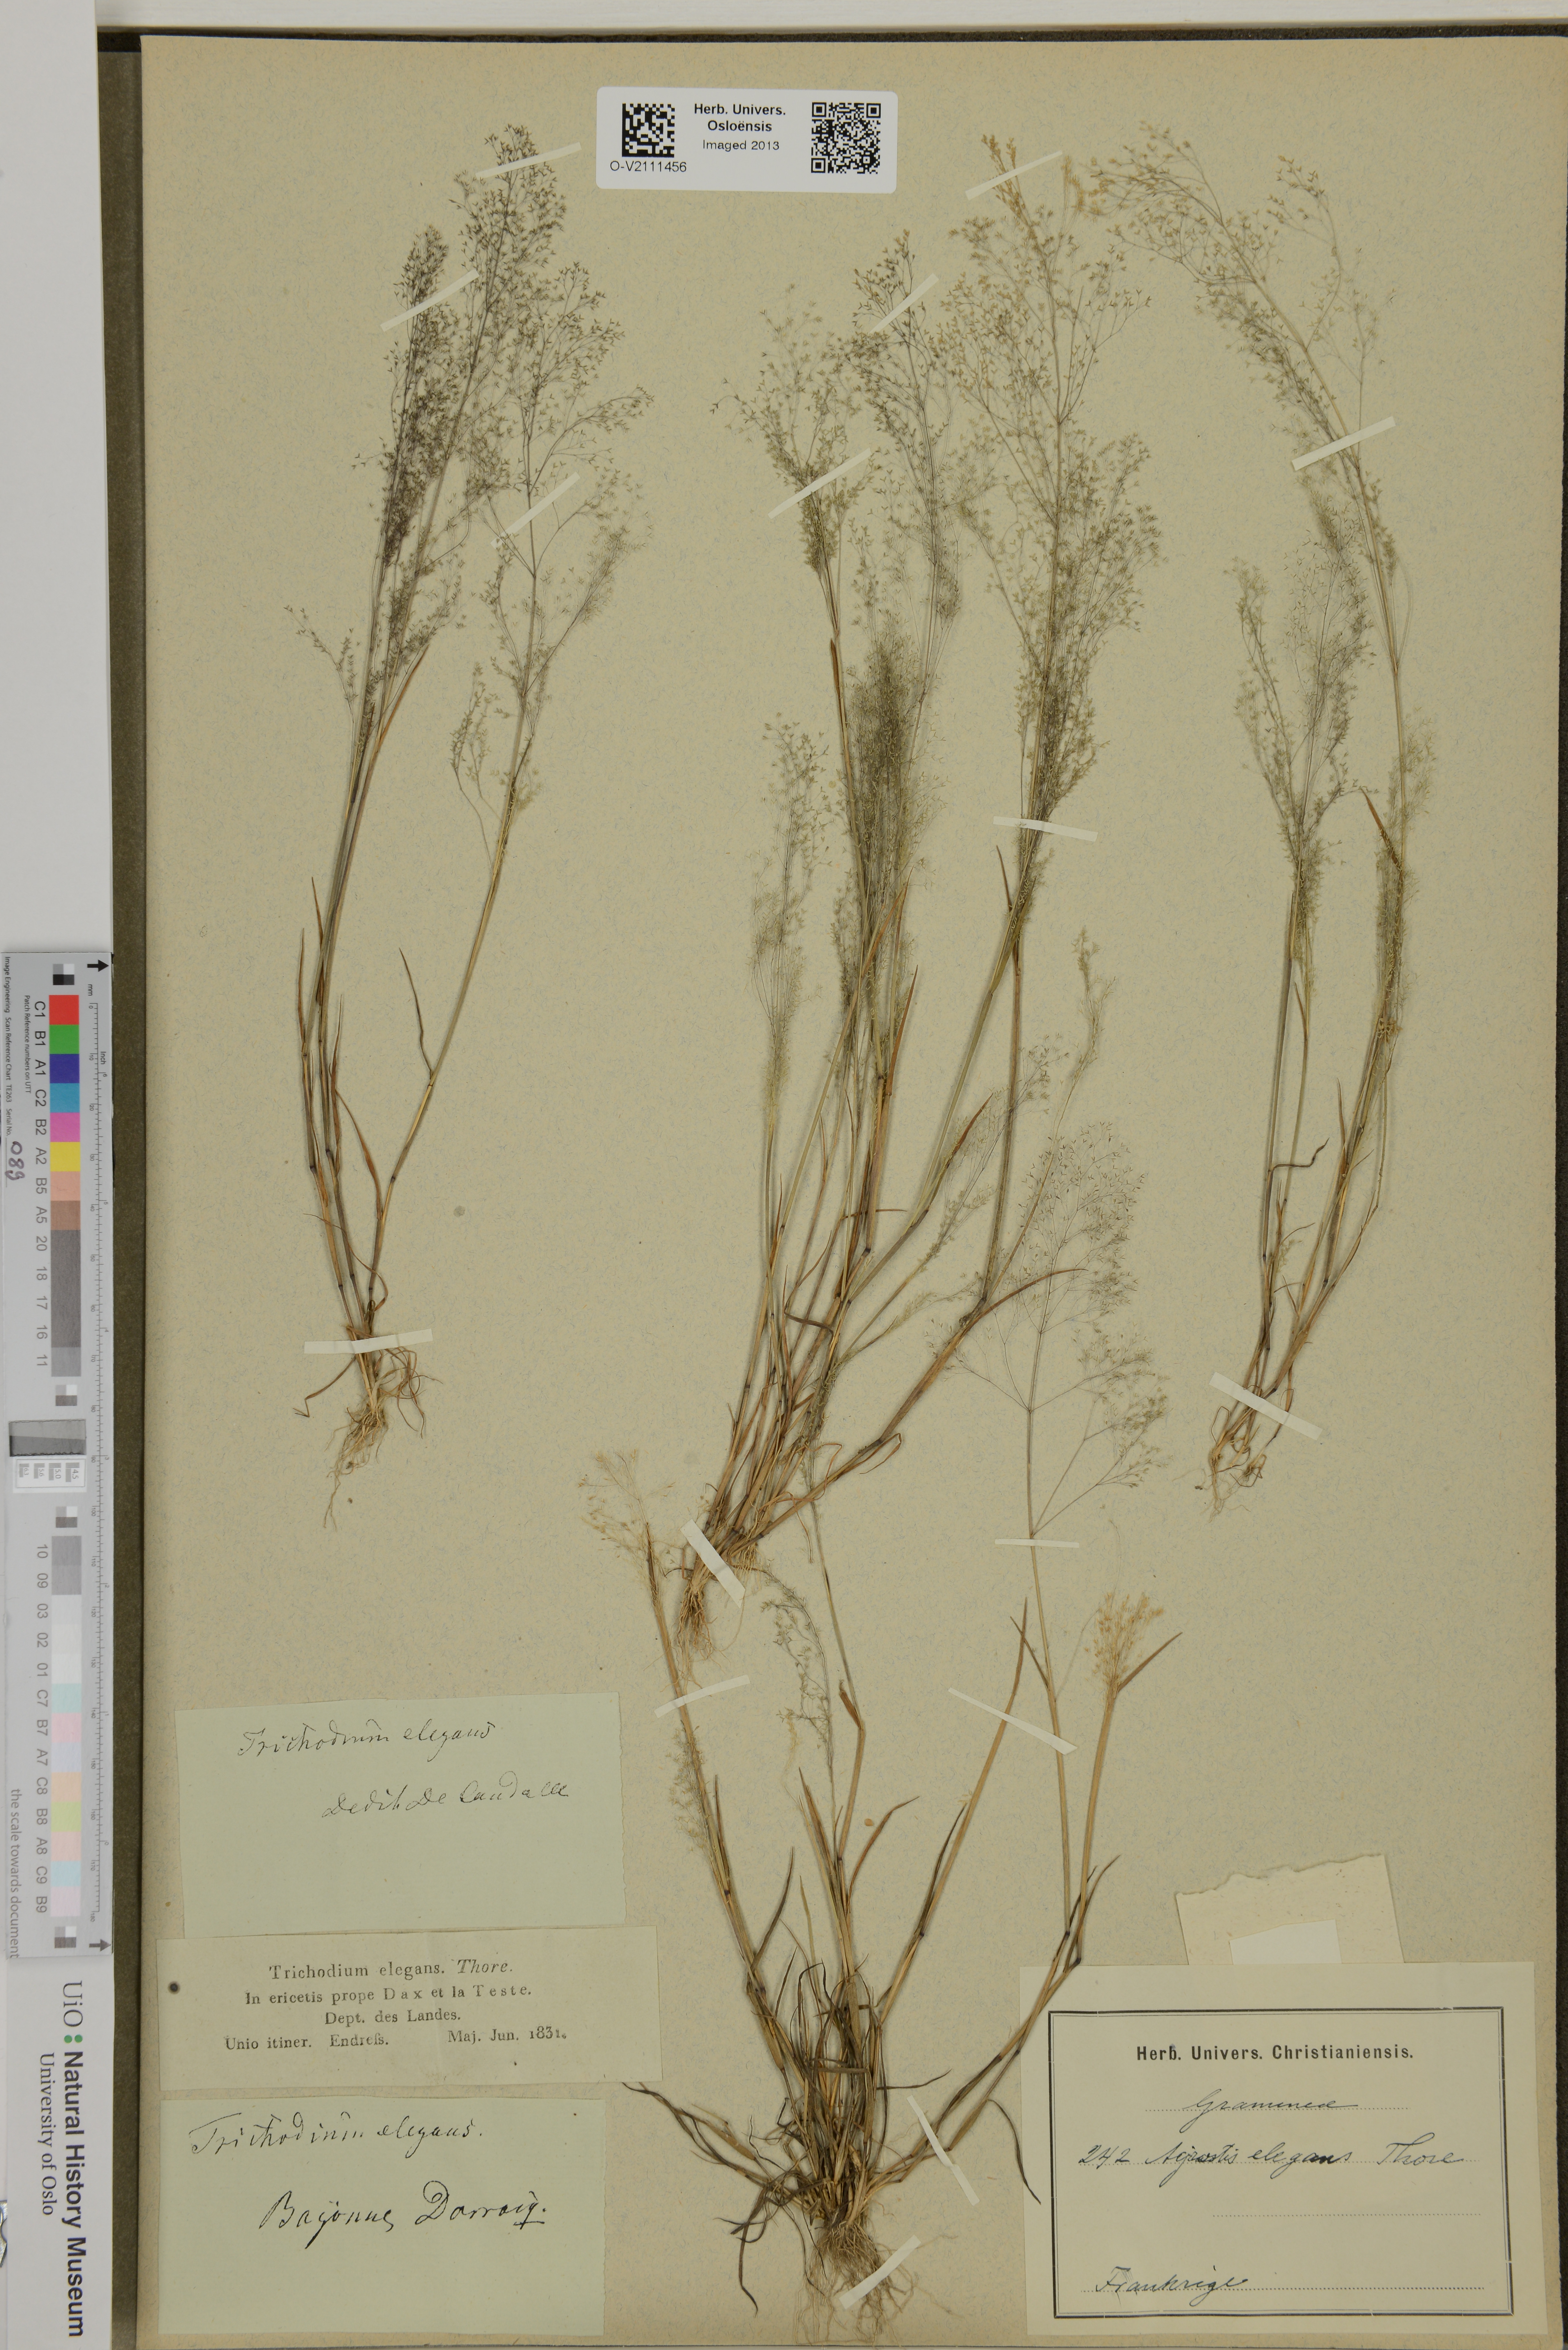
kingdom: Plantae
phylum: Tracheophyta
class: Liliopsida
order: Poales
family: Poaceae
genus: Agrostis
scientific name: Agrostis
